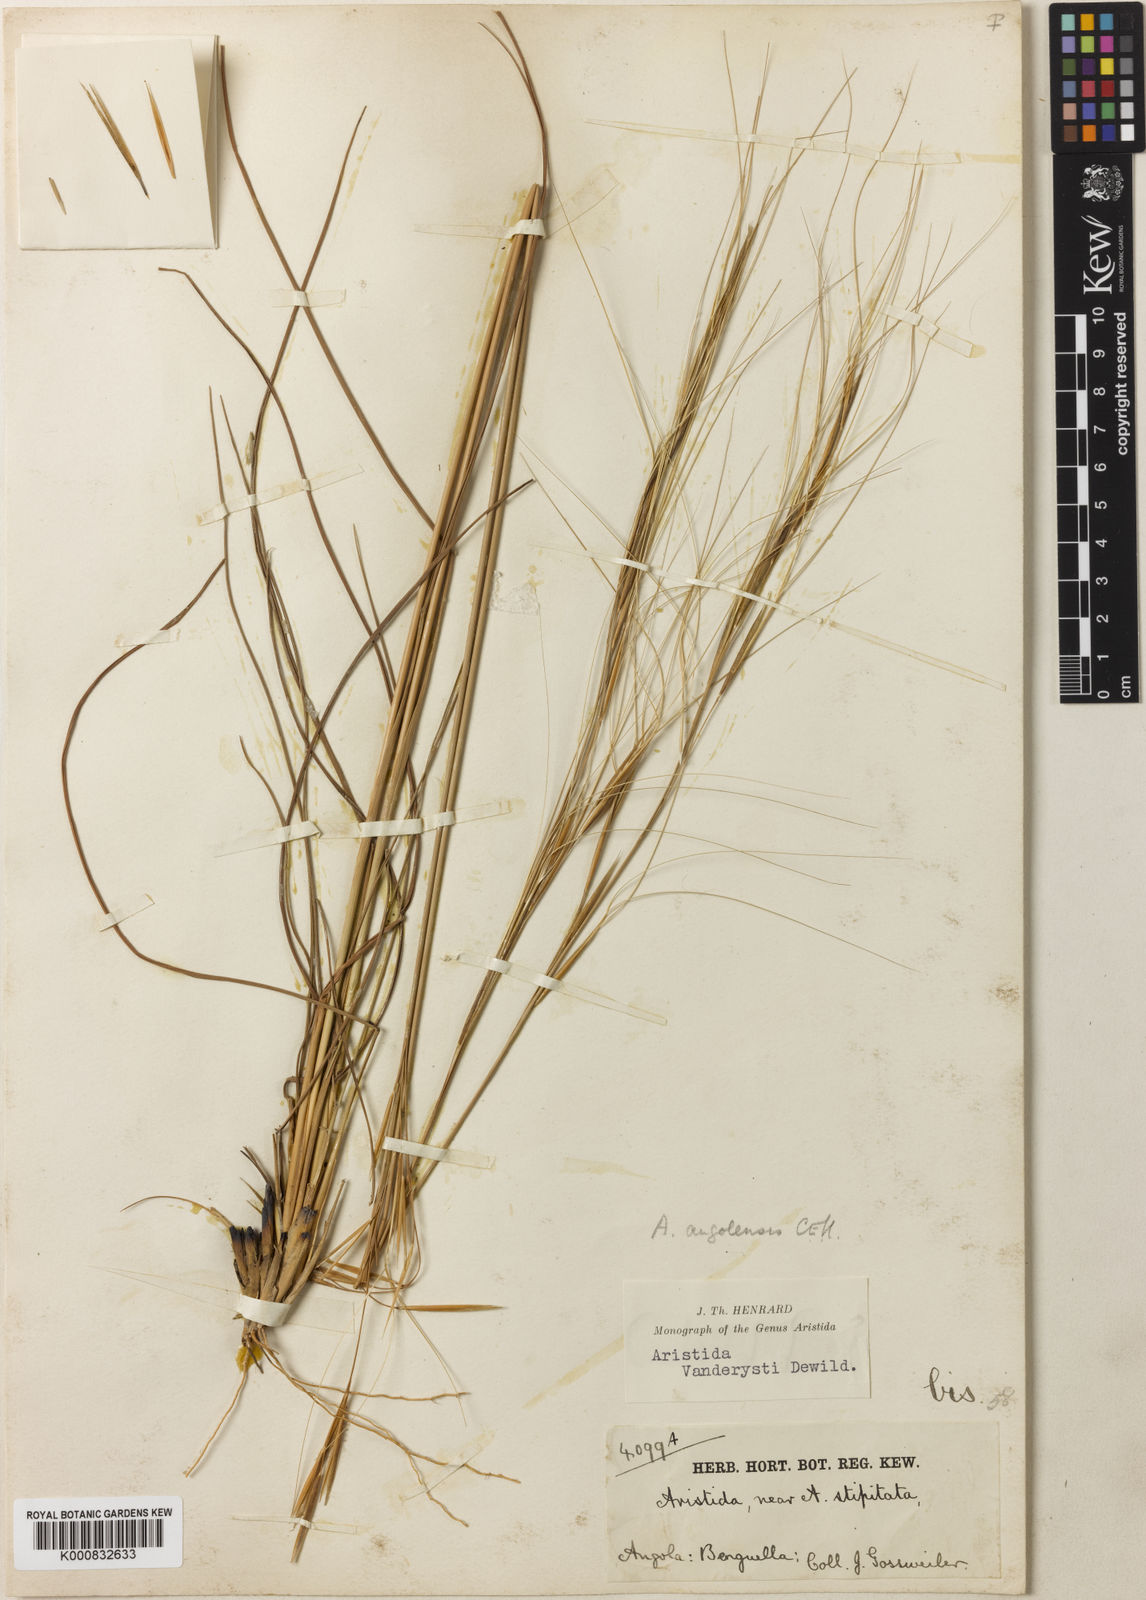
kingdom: Plantae
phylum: Tracheophyta
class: Liliopsida
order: Poales
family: Poaceae
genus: Sartidia
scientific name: Sartidia angolensis
